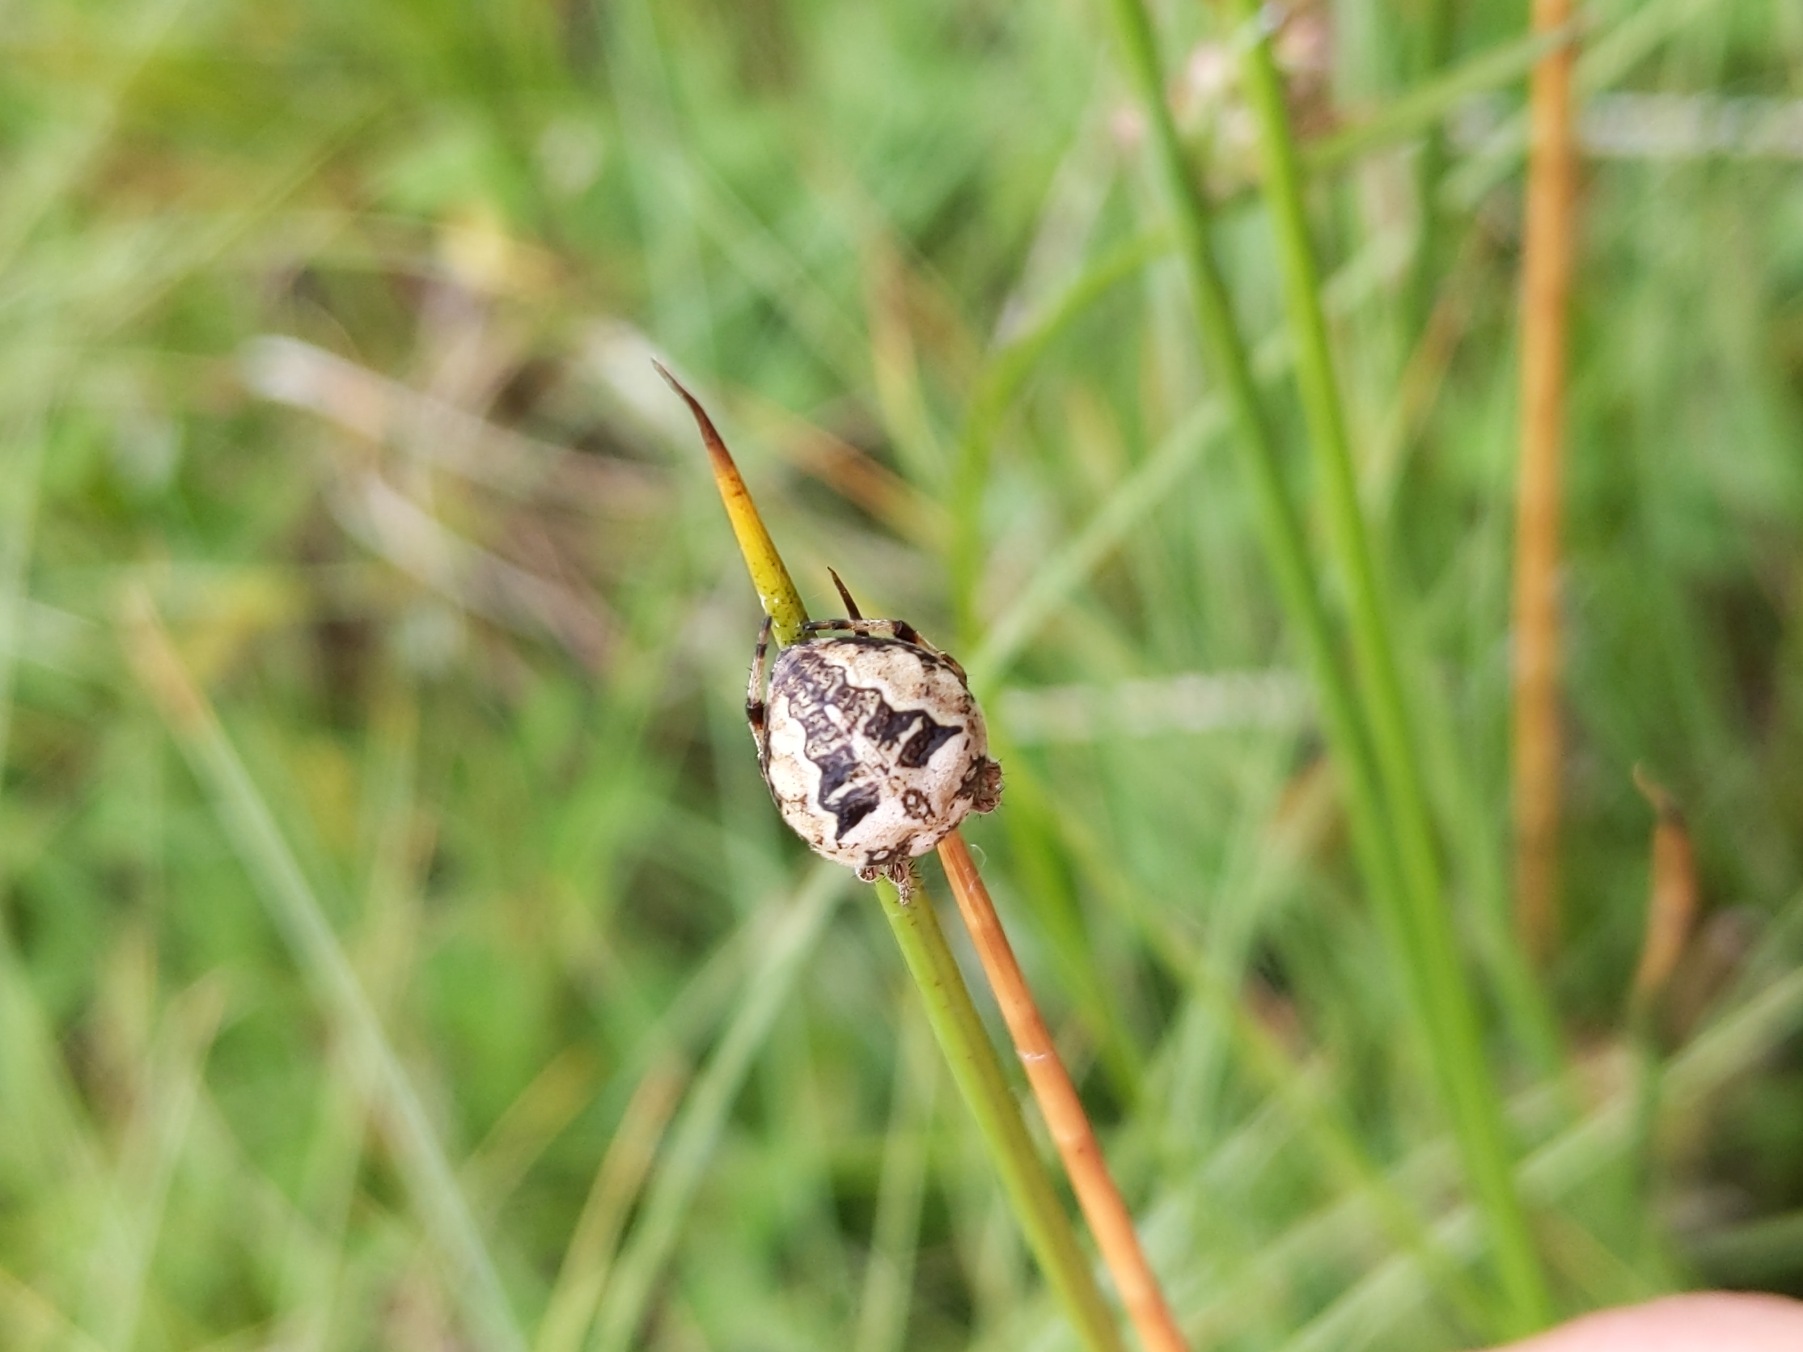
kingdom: Animalia
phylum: Arthropoda
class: Arachnida
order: Araneae
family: Araneidae
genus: Larinioides
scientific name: Larinioides cornutus
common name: Sivhjulspinder
